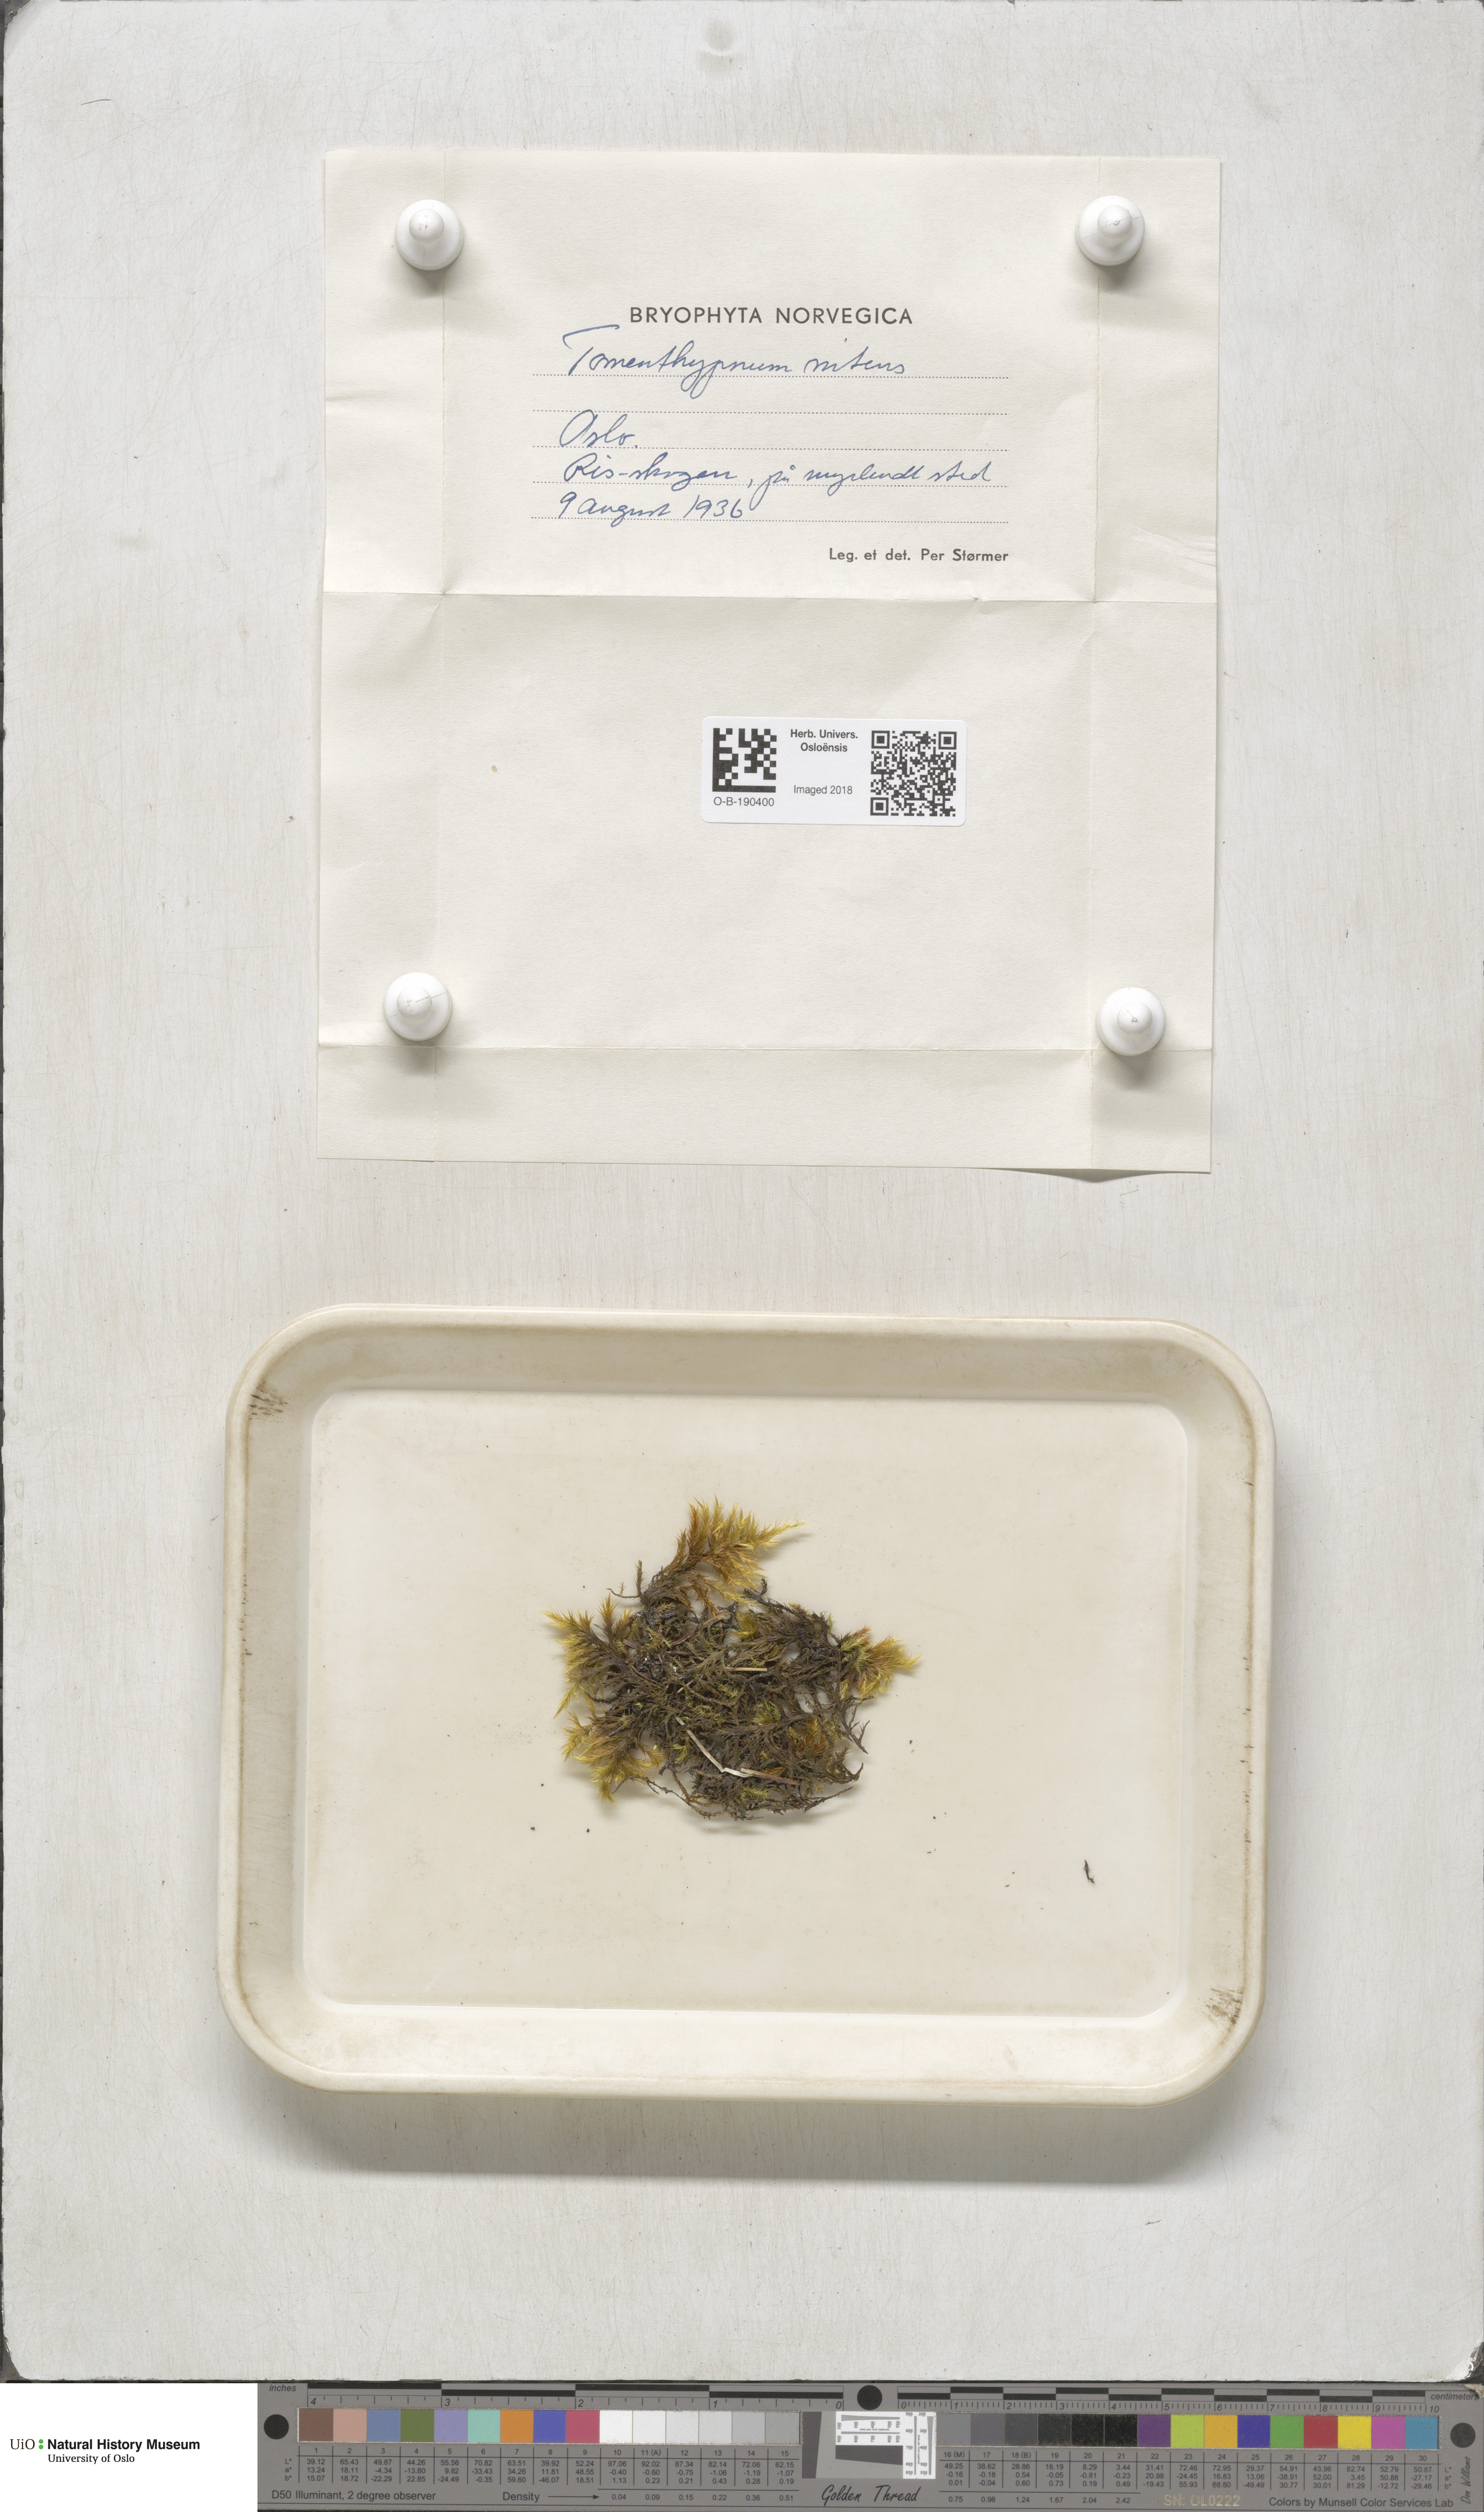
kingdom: Plantae
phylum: Bryophyta
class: Bryopsida
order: Hypnales
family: Amblystegiaceae
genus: Tomentypnum
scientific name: Tomentypnum nitens
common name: Golden fuzzy fen moss
